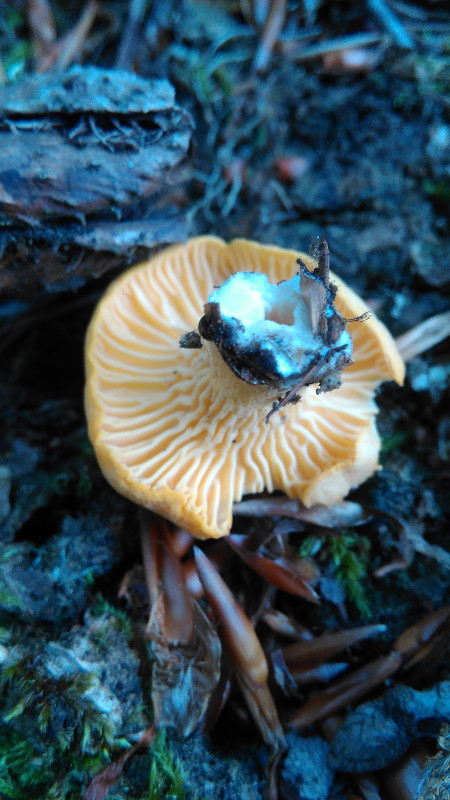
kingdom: Fungi
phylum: Basidiomycota
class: Agaricomycetes
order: Cantharellales
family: Hydnaceae
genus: Cantharellus
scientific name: Cantharellus cibarius
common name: almindelig kantarel
